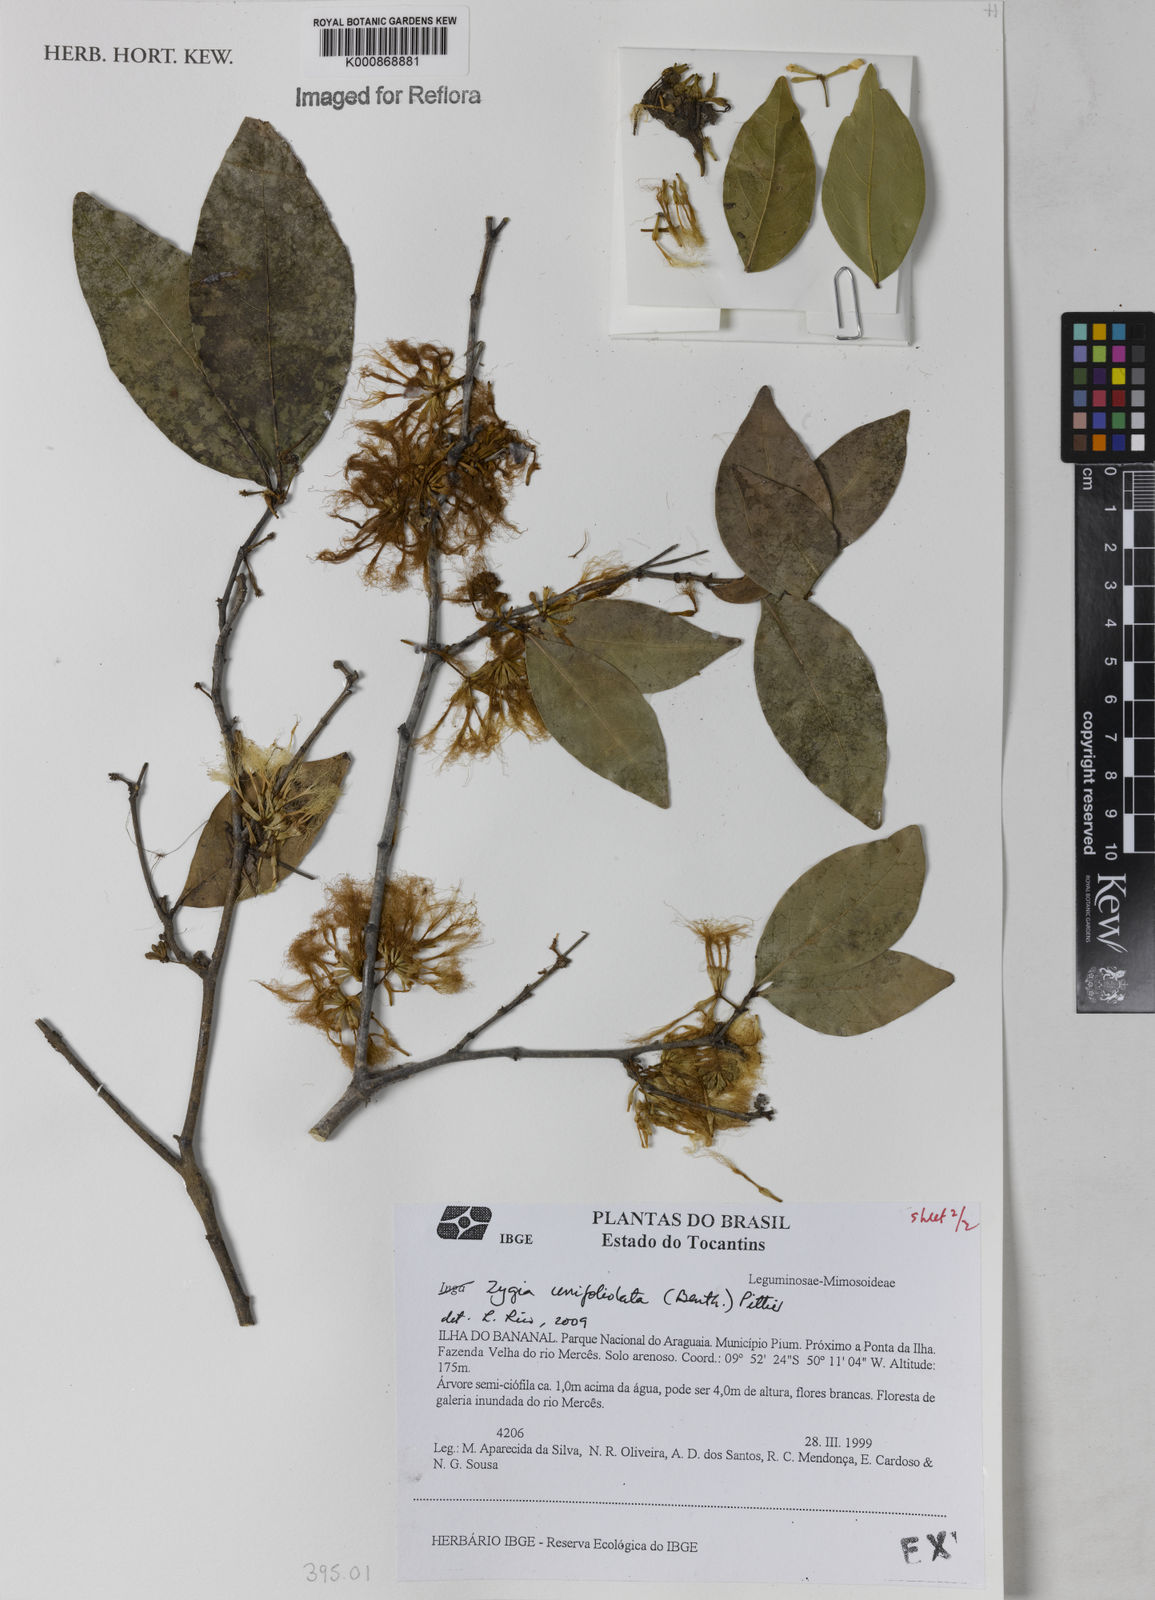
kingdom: Plantae
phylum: Tracheophyta
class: Magnoliopsida
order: Fabales
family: Fabaceae
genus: Zygia
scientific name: Zygia unifoliolata
